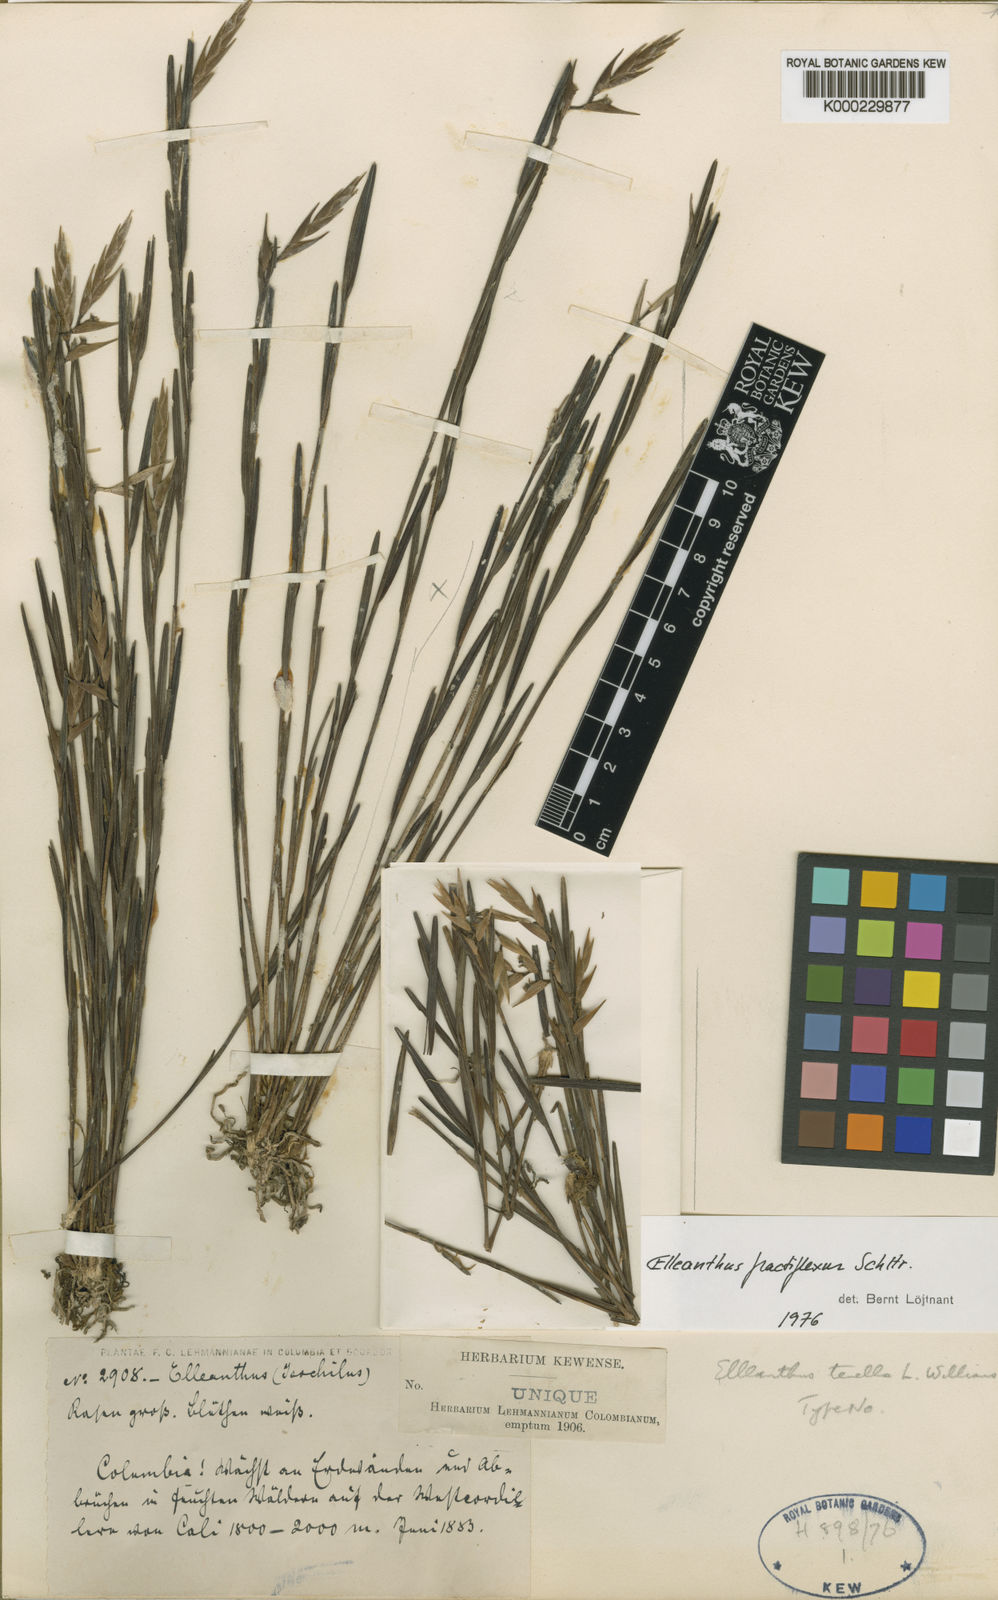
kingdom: Plantae
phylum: Tracheophyta
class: Liliopsida
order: Asparagales
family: Orchidaceae
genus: Elleanthus
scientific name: Elleanthus fractiflexus
